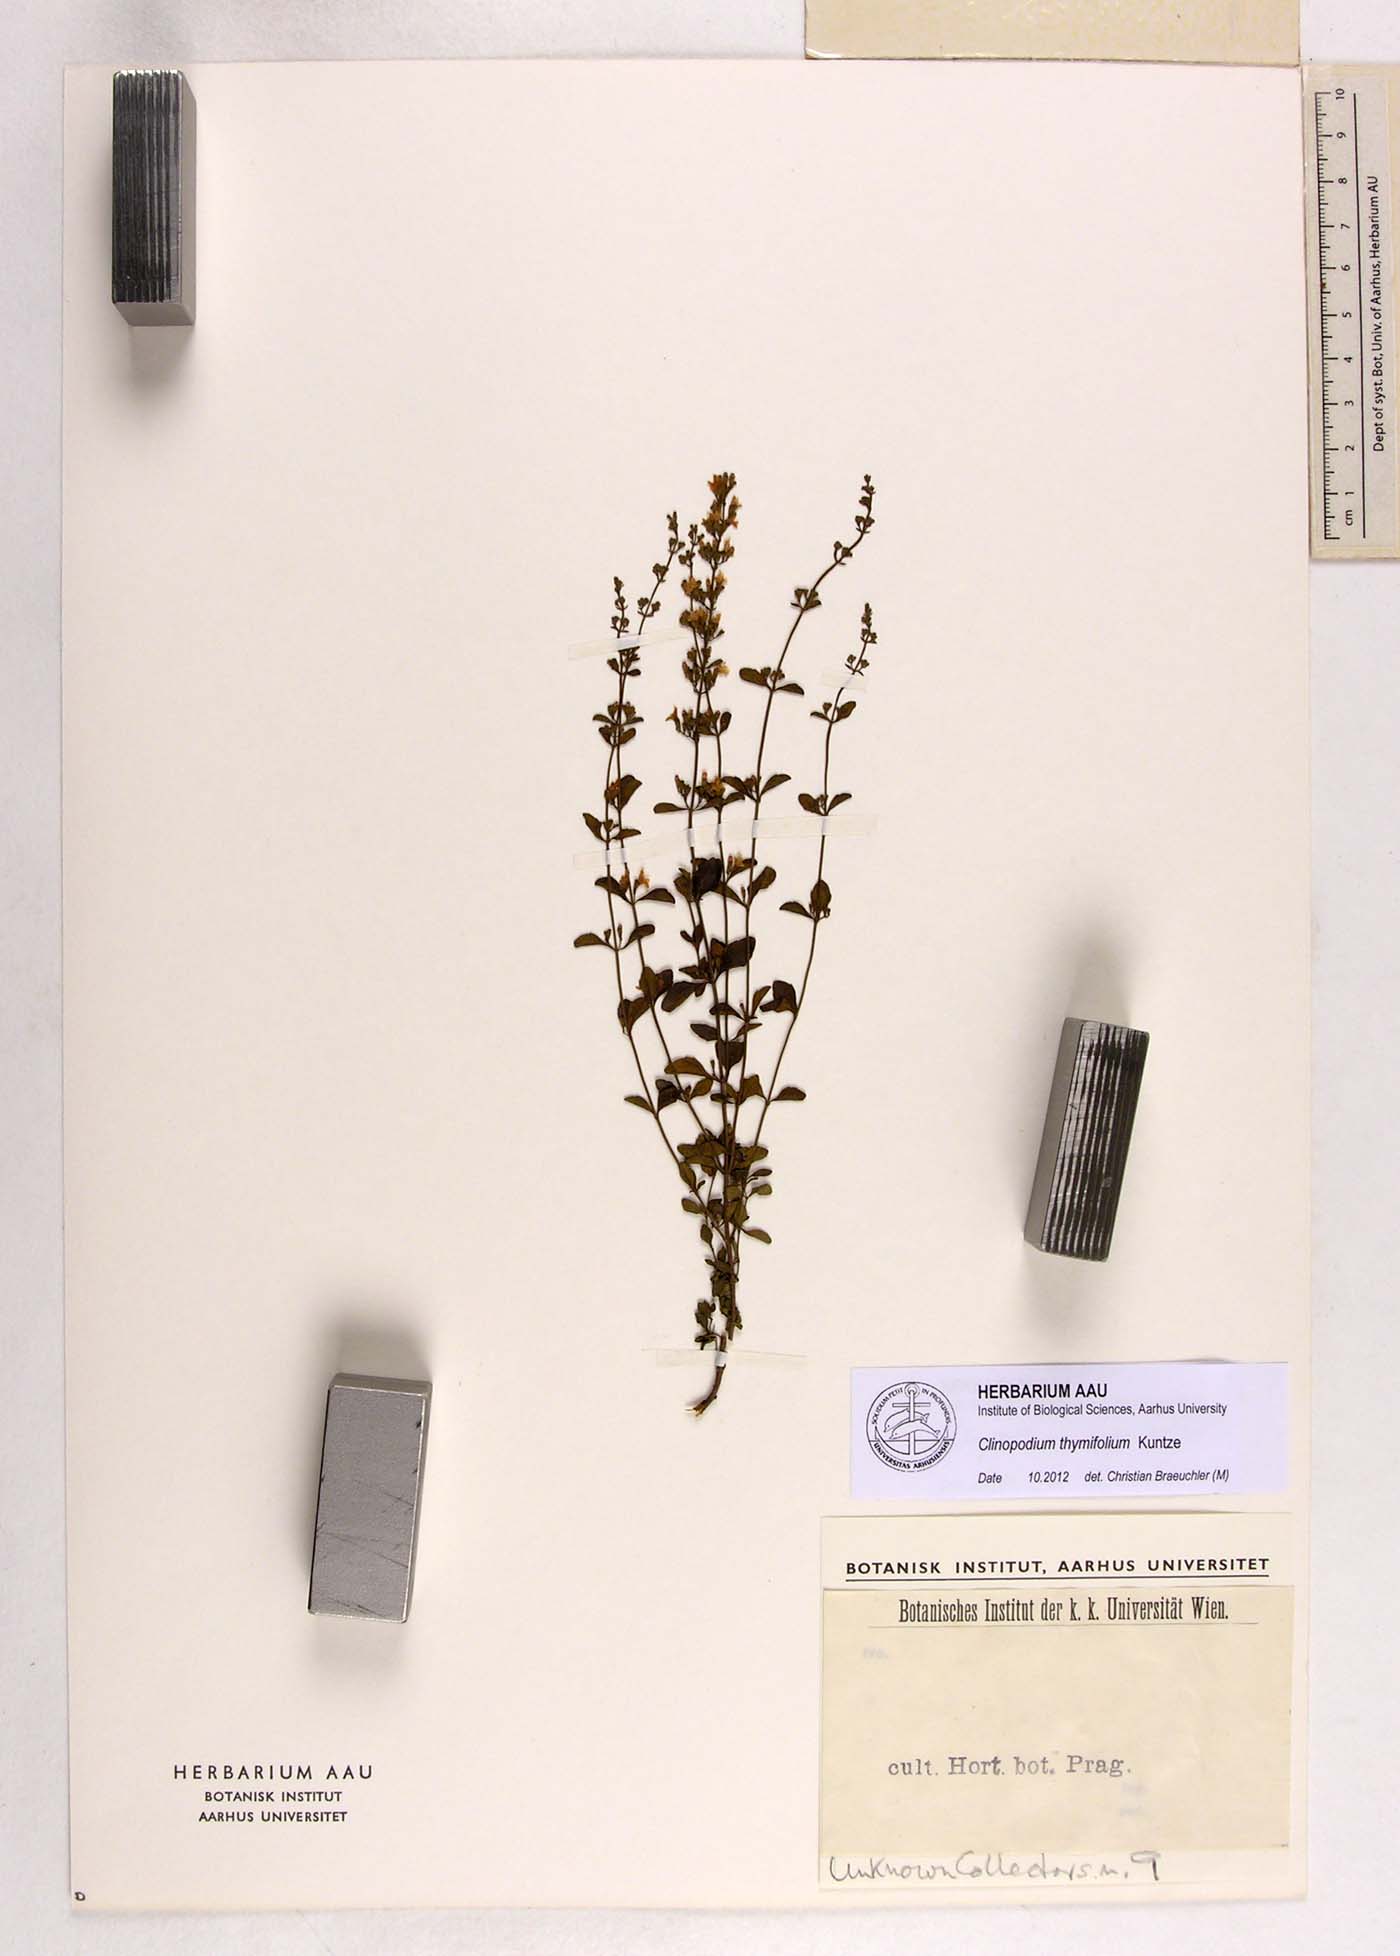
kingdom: Plantae
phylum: Tracheophyta
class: Magnoliopsida
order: Lamiales
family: Lamiaceae
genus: Clinopodium
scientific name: Clinopodium hostii
